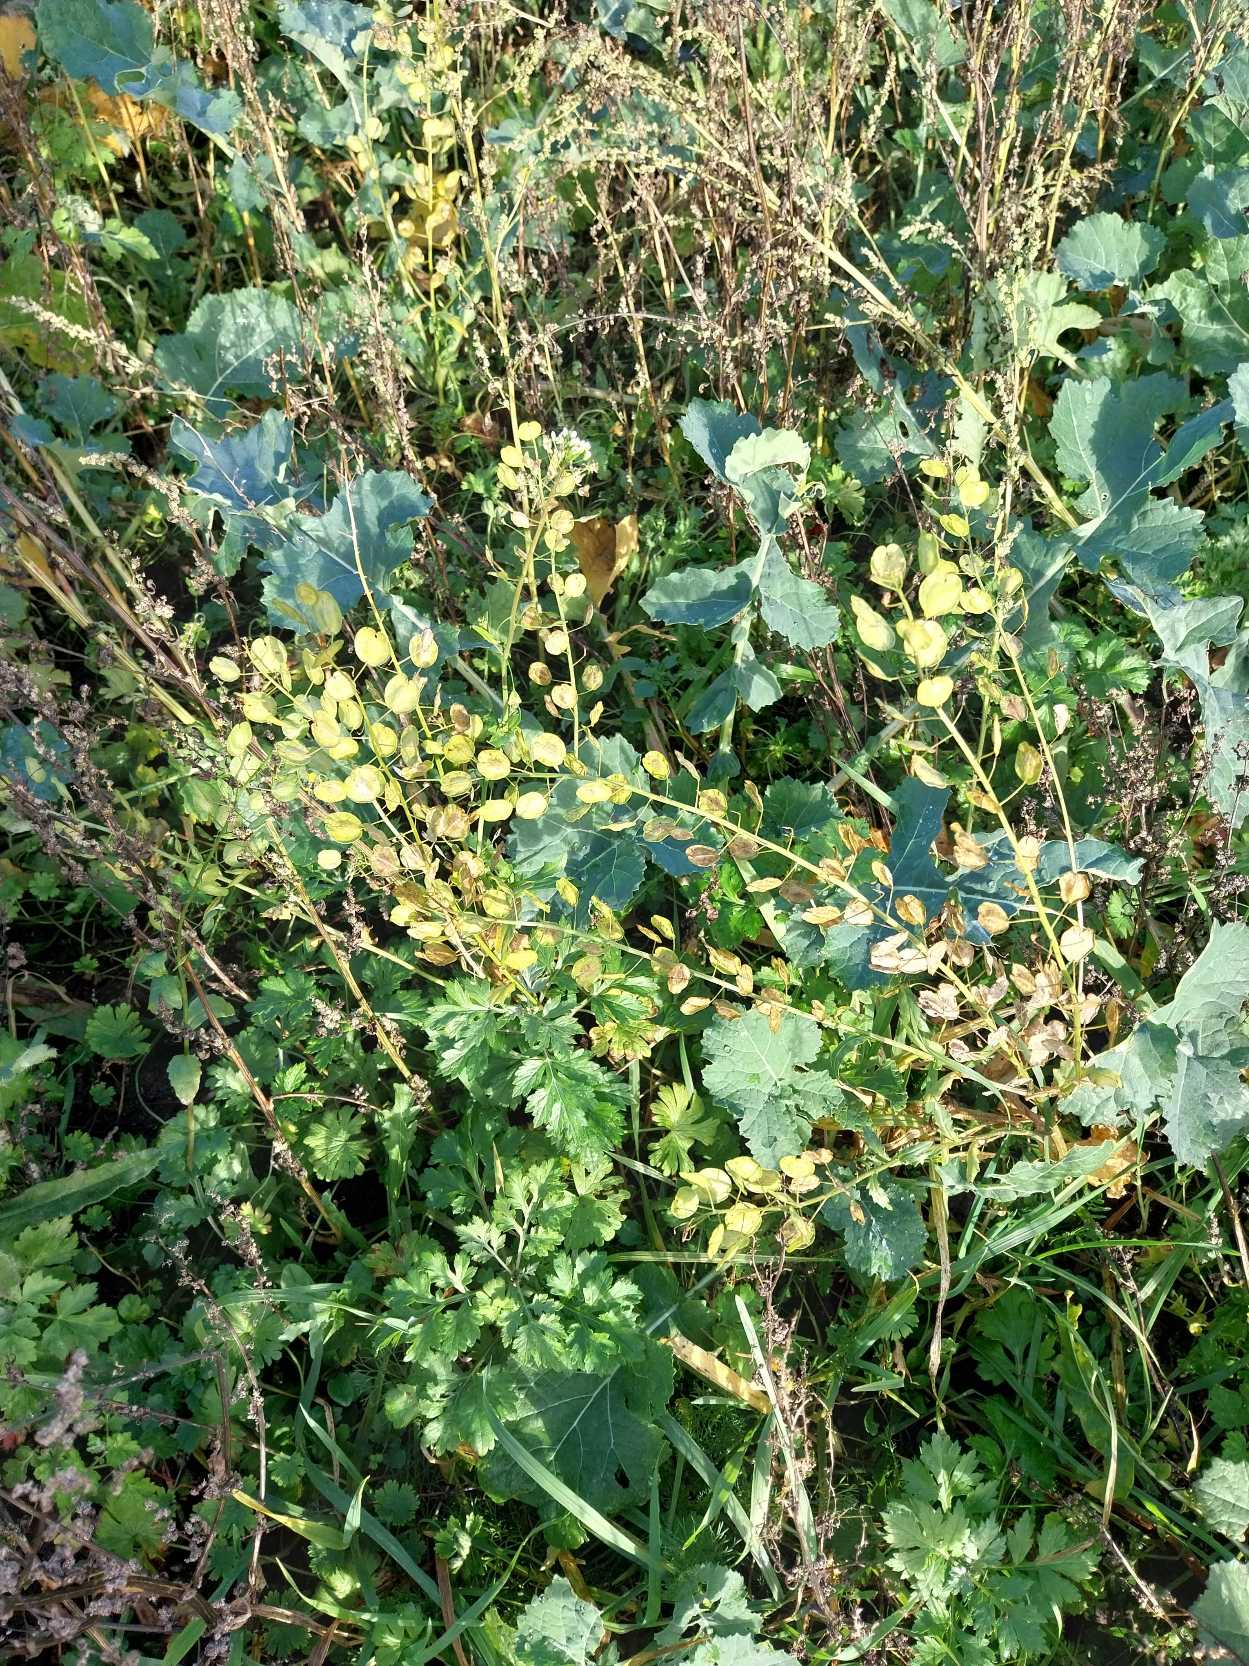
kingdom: Plantae
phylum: Tracheophyta
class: Magnoliopsida
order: Brassicales
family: Brassicaceae
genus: Thlaspi
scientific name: Thlaspi arvense
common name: Almindelig pengeurt
